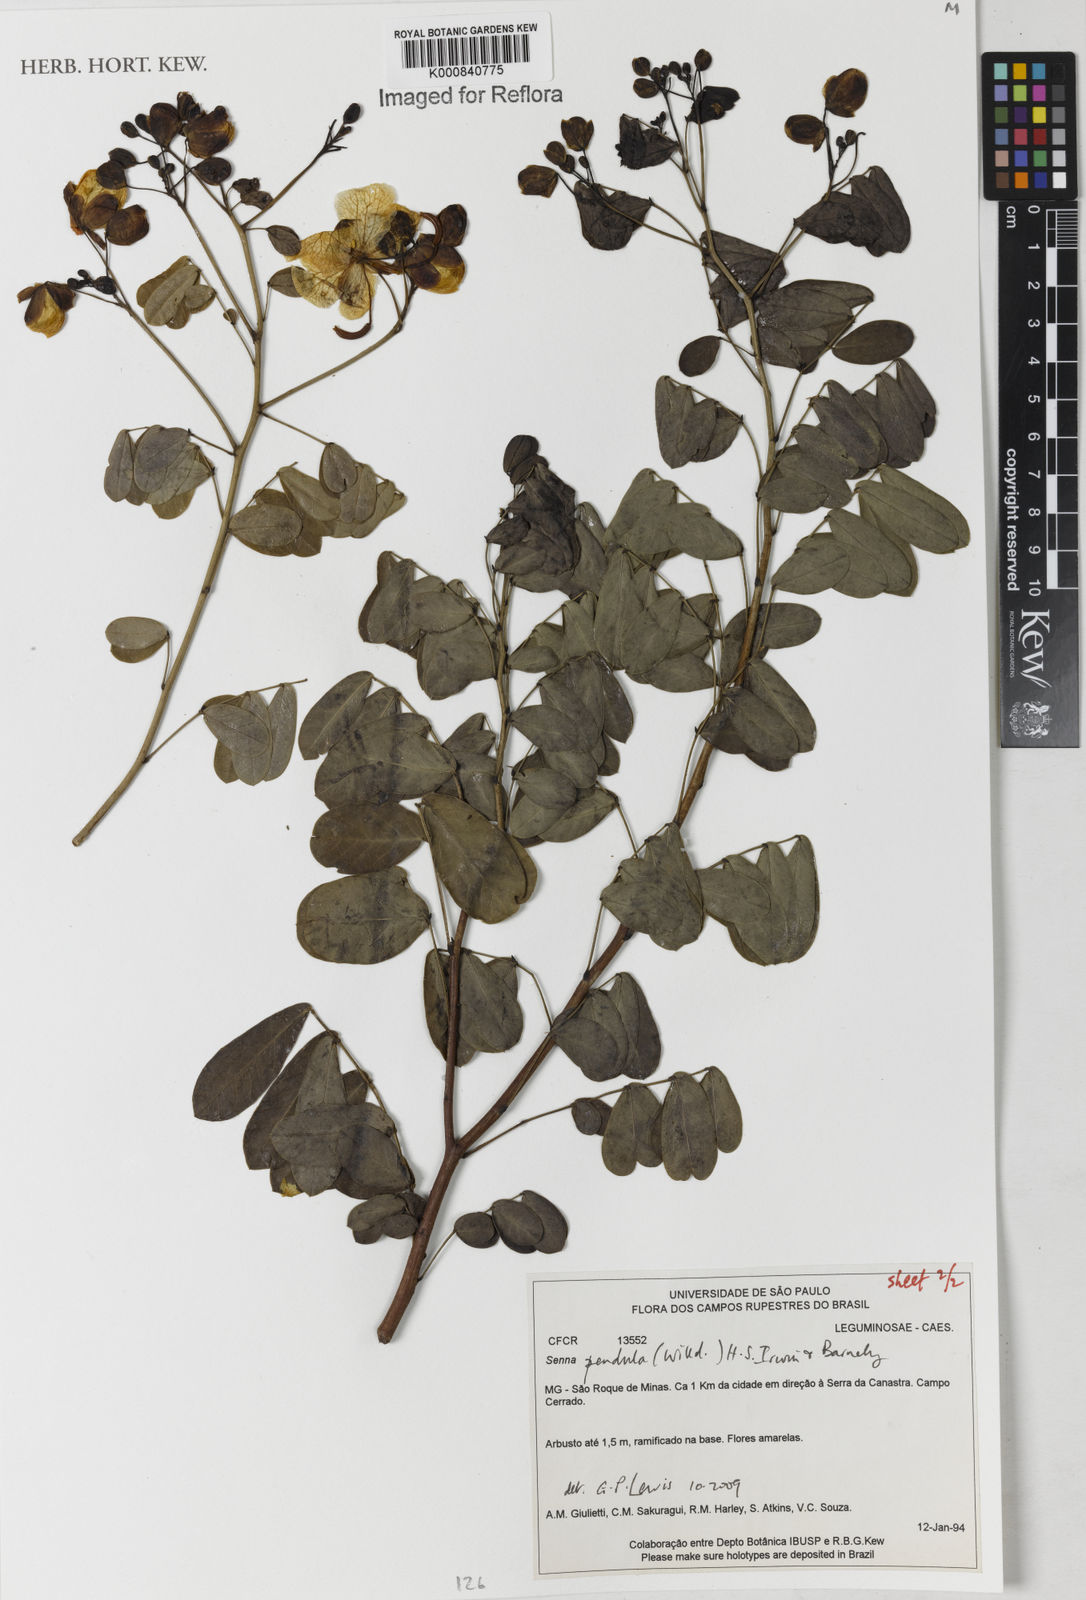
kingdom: Plantae
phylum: Tracheophyta
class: Magnoliopsida
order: Fabales
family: Fabaceae
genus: Senna
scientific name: Senna pendula
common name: Easter cassia
